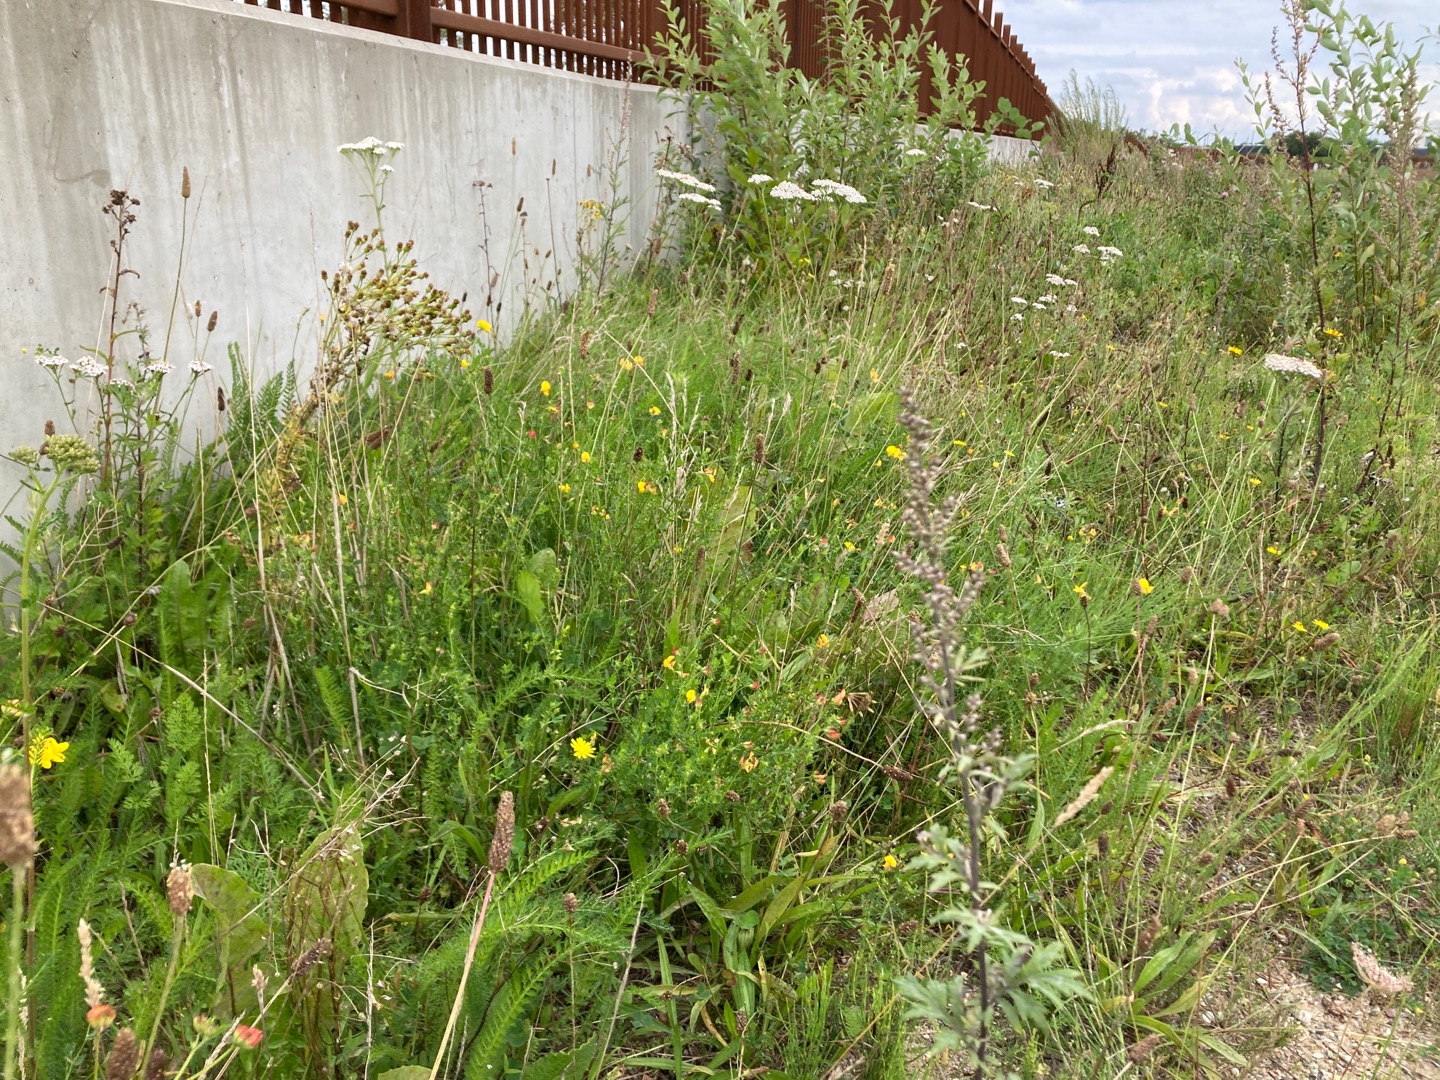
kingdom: Plantae
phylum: Tracheophyta
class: Magnoliopsida
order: Fabales
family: Fabaceae
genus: Lotus
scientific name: Lotus corniculatus
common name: Almindelig kællingetand
